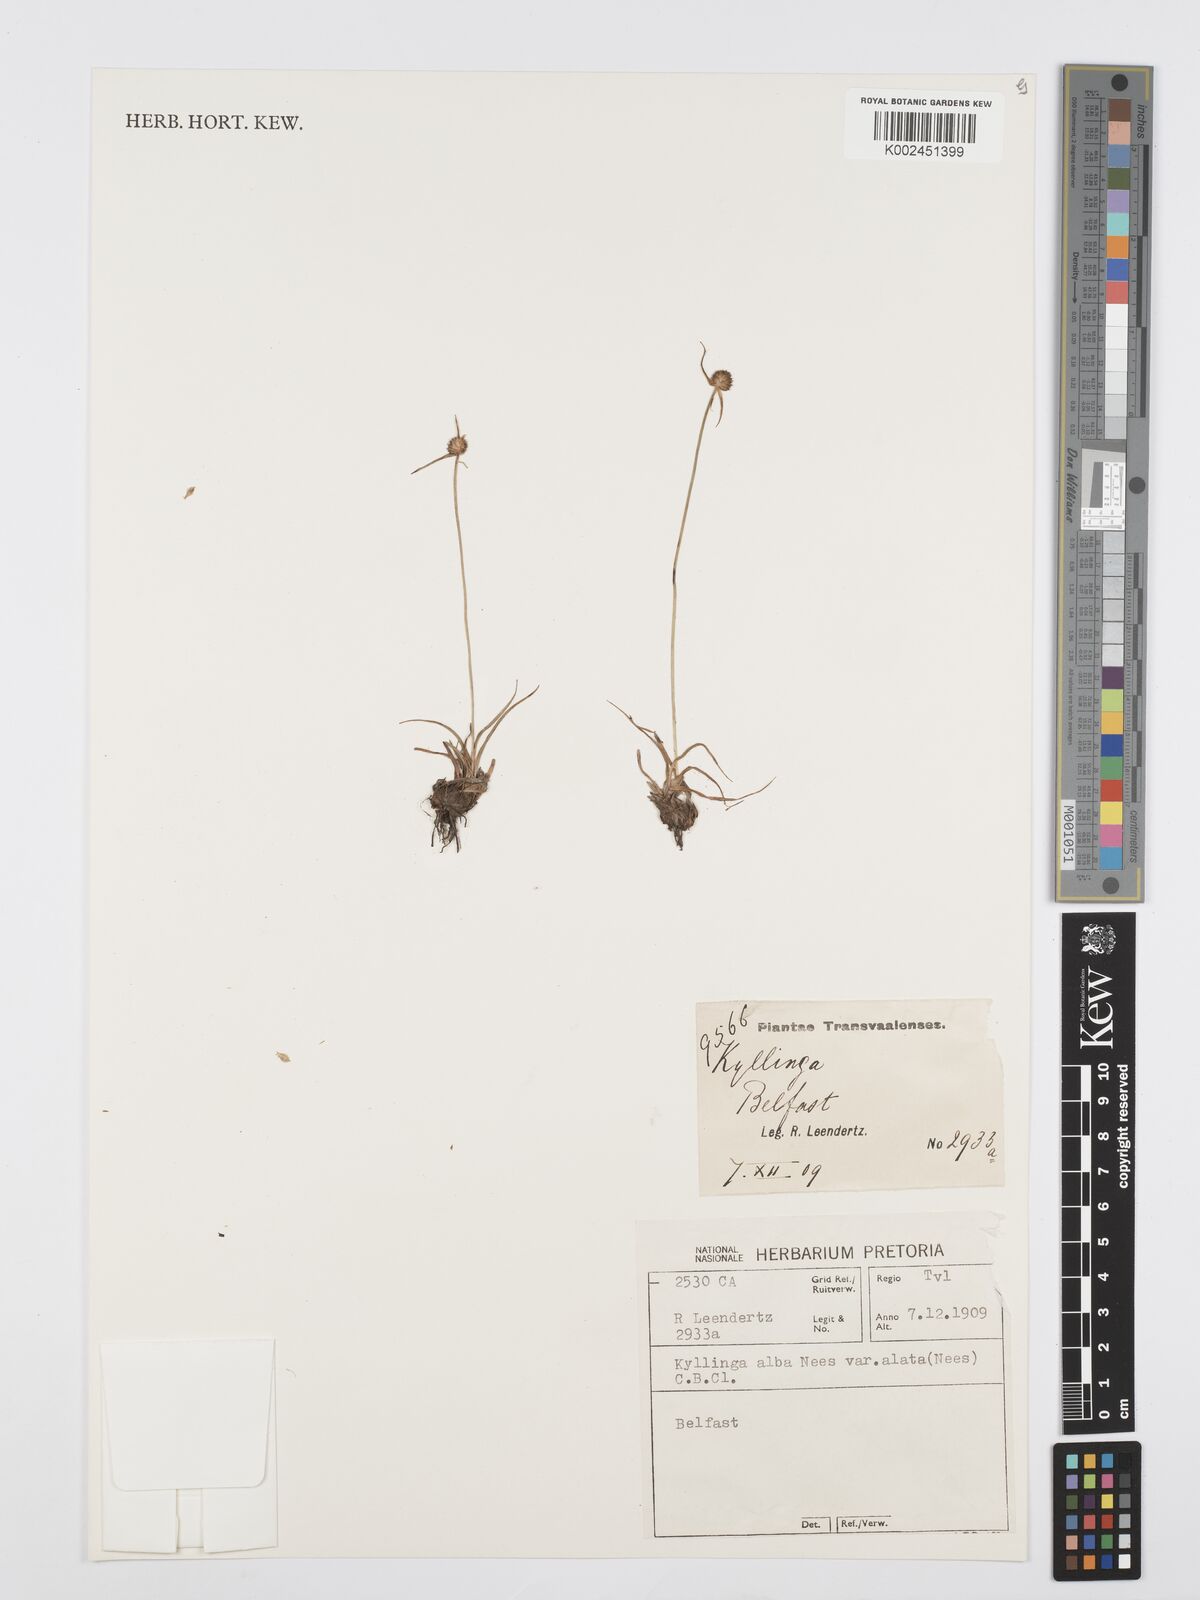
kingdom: Plantae
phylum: Tracheophyta
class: Liliopsida
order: Poales
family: Cyperaceae
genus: Cyperus
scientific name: Cyperus alatus
